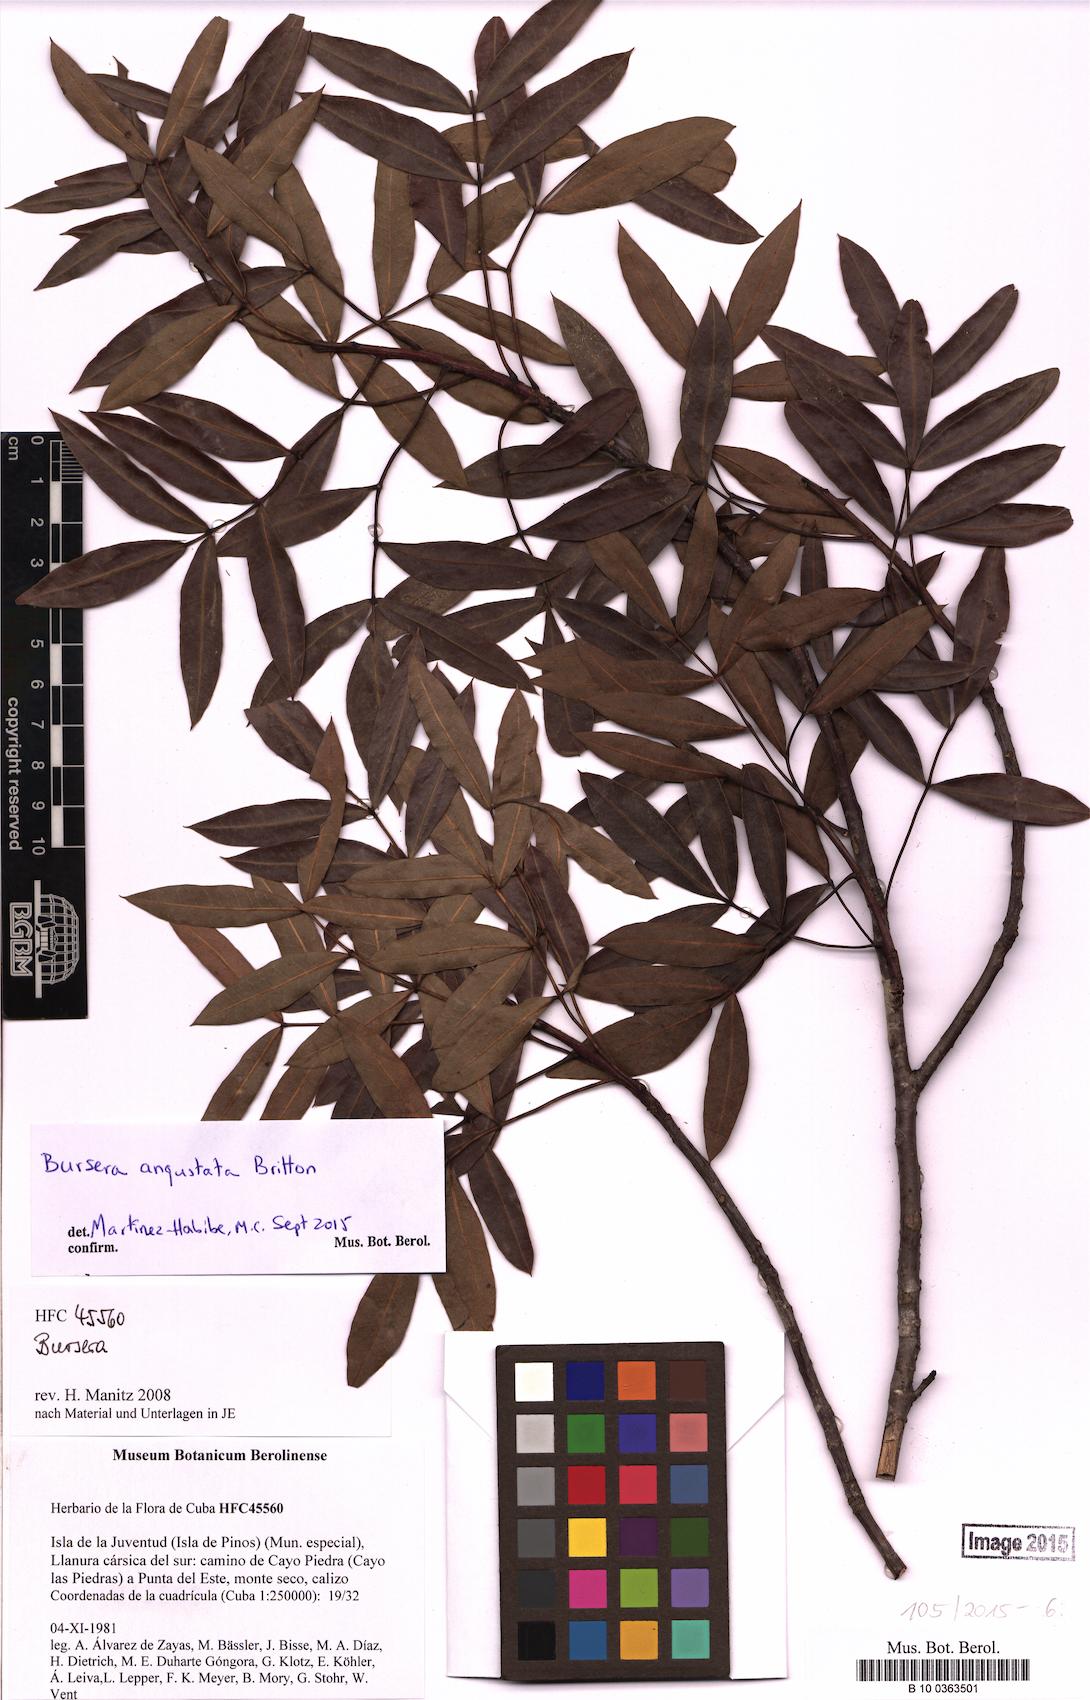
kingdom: Plantae
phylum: Tracheophyta
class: Magnoliopsida
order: Sapindales
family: Burseraceae
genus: Bursera
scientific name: Bursera angustata
